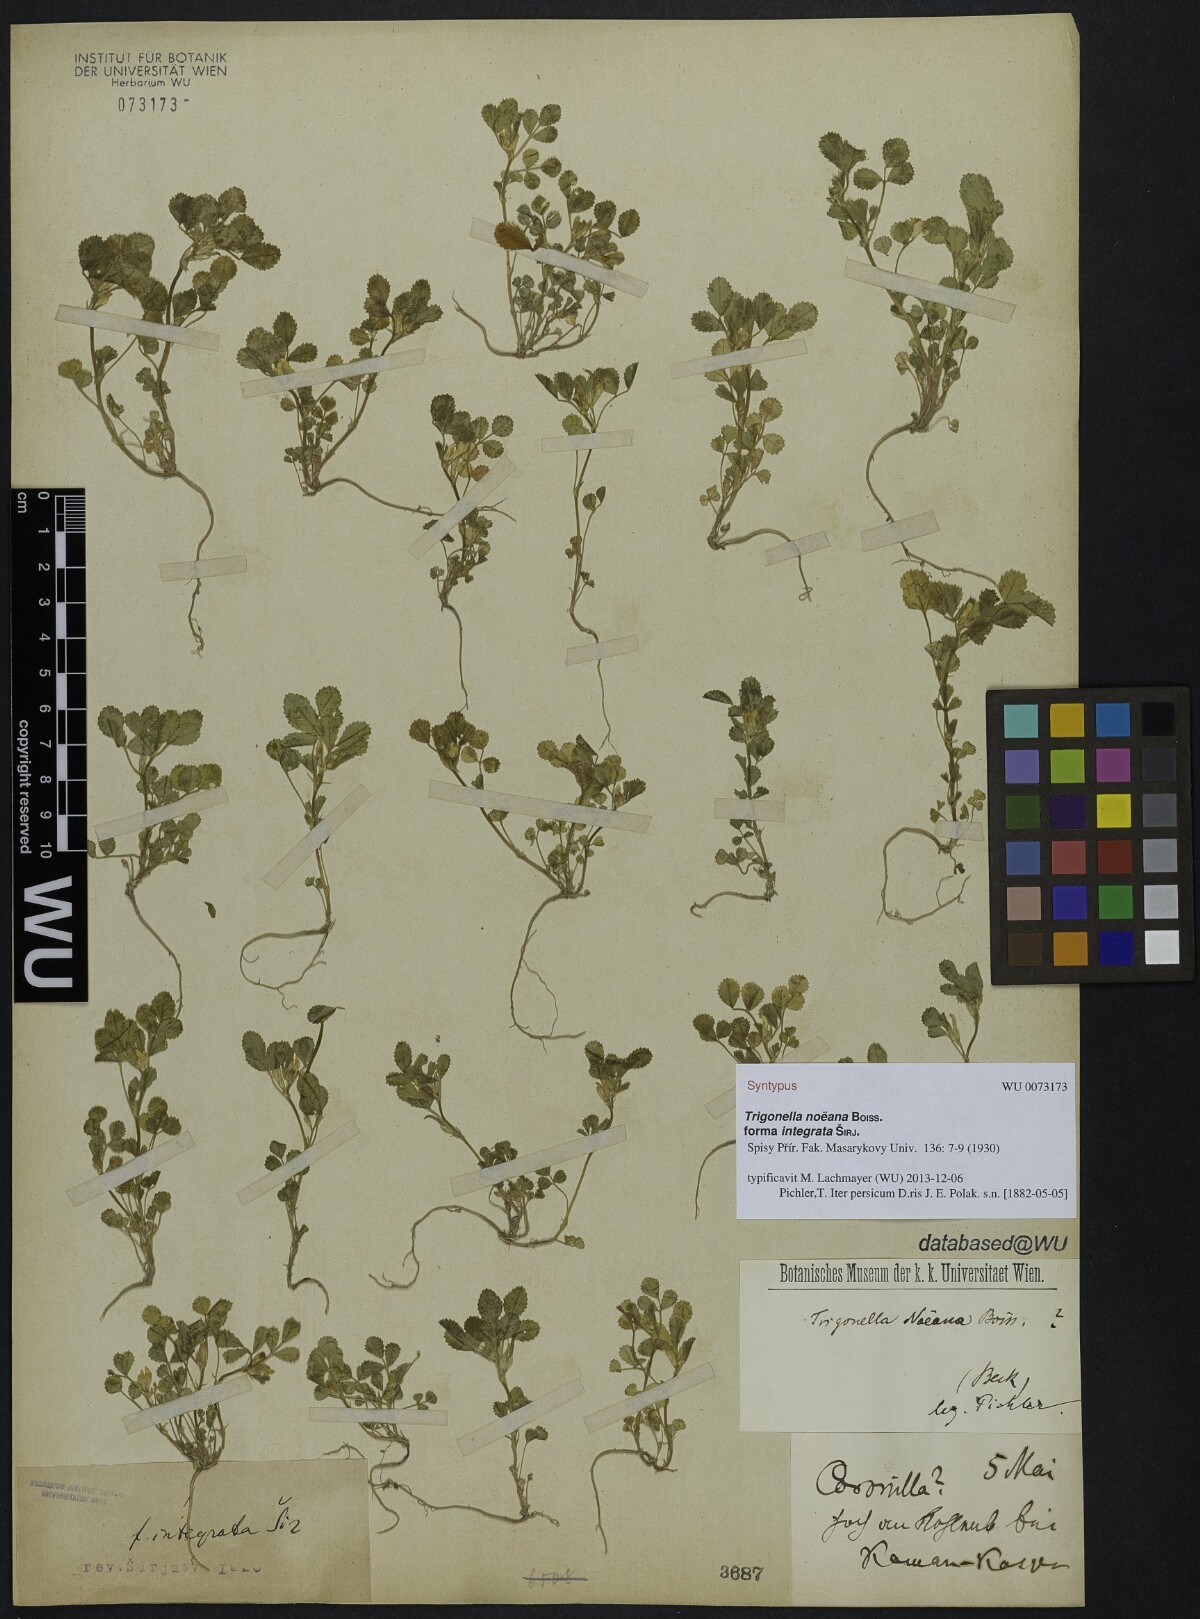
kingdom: Plantae
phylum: Tracheophyta
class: Magnoliopsida
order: Fabales
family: Fabaceae
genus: Medicago
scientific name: Medicago monantha
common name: Medick
